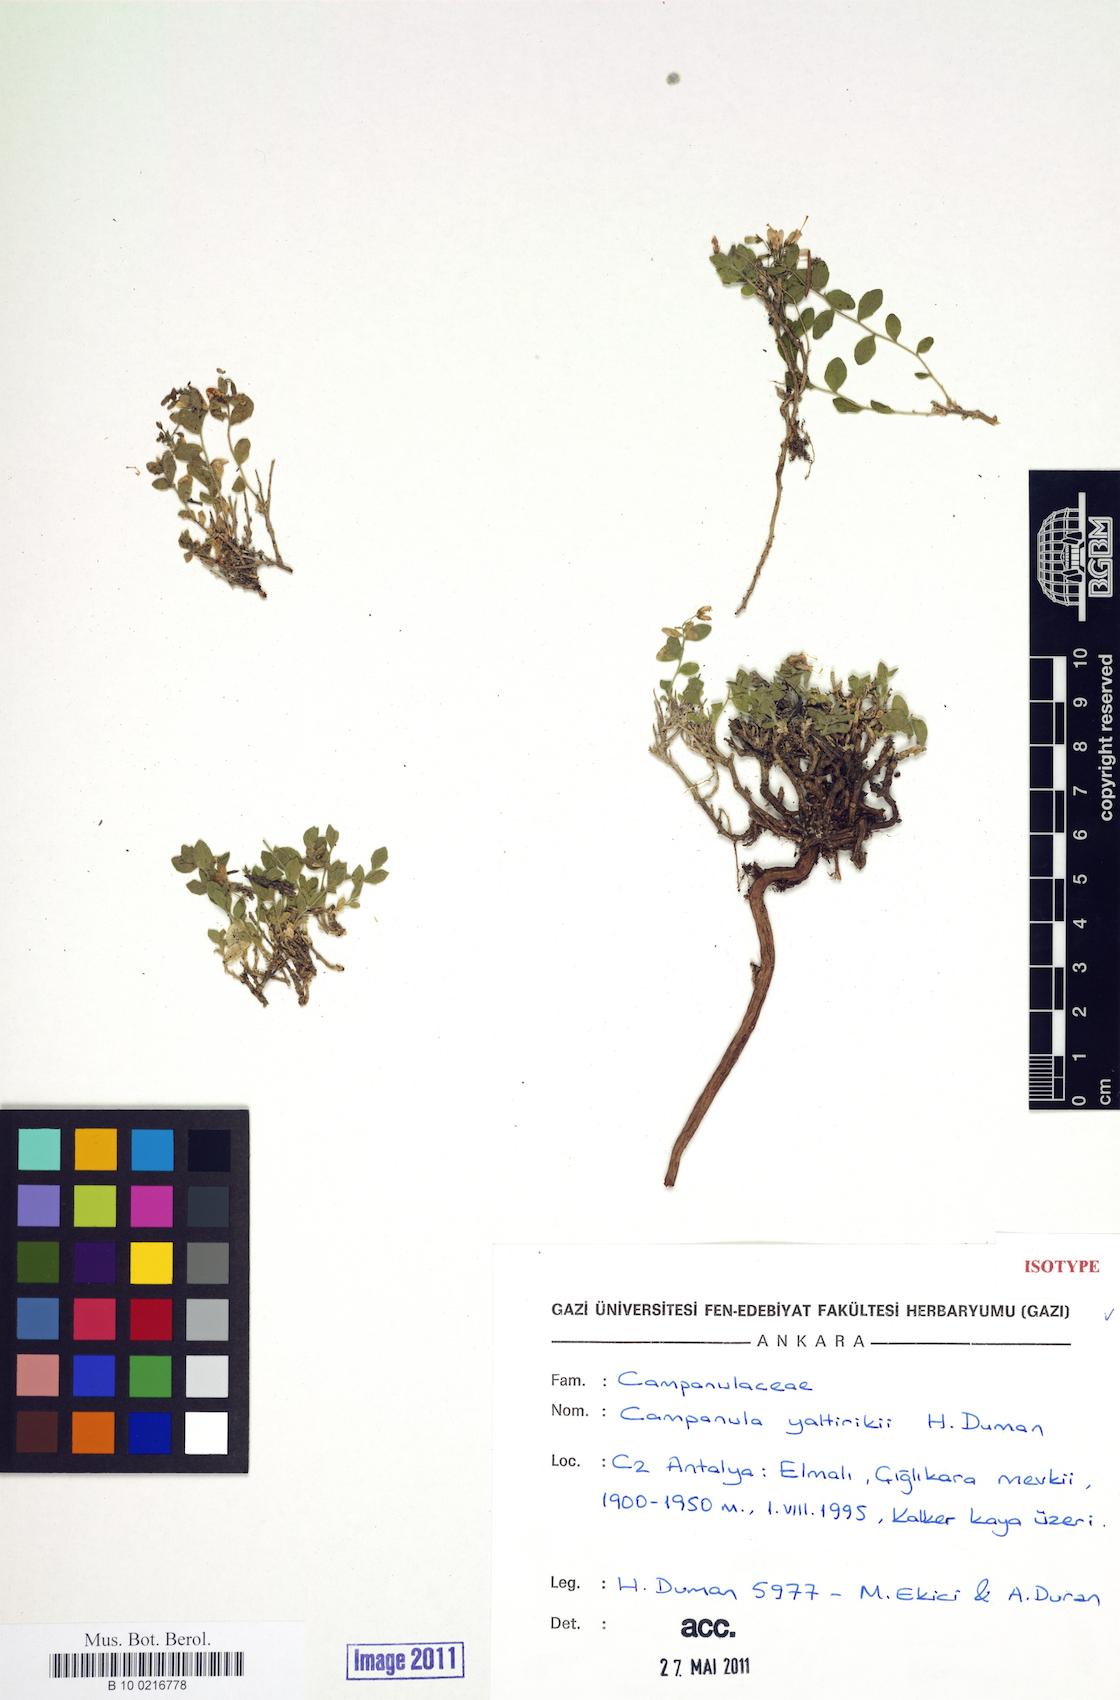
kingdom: Plantae
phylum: Tracheophyta
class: Magnoliopsida
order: Asterales
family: Campanulaceae
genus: Campanula
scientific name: Campanula yaltirikii
